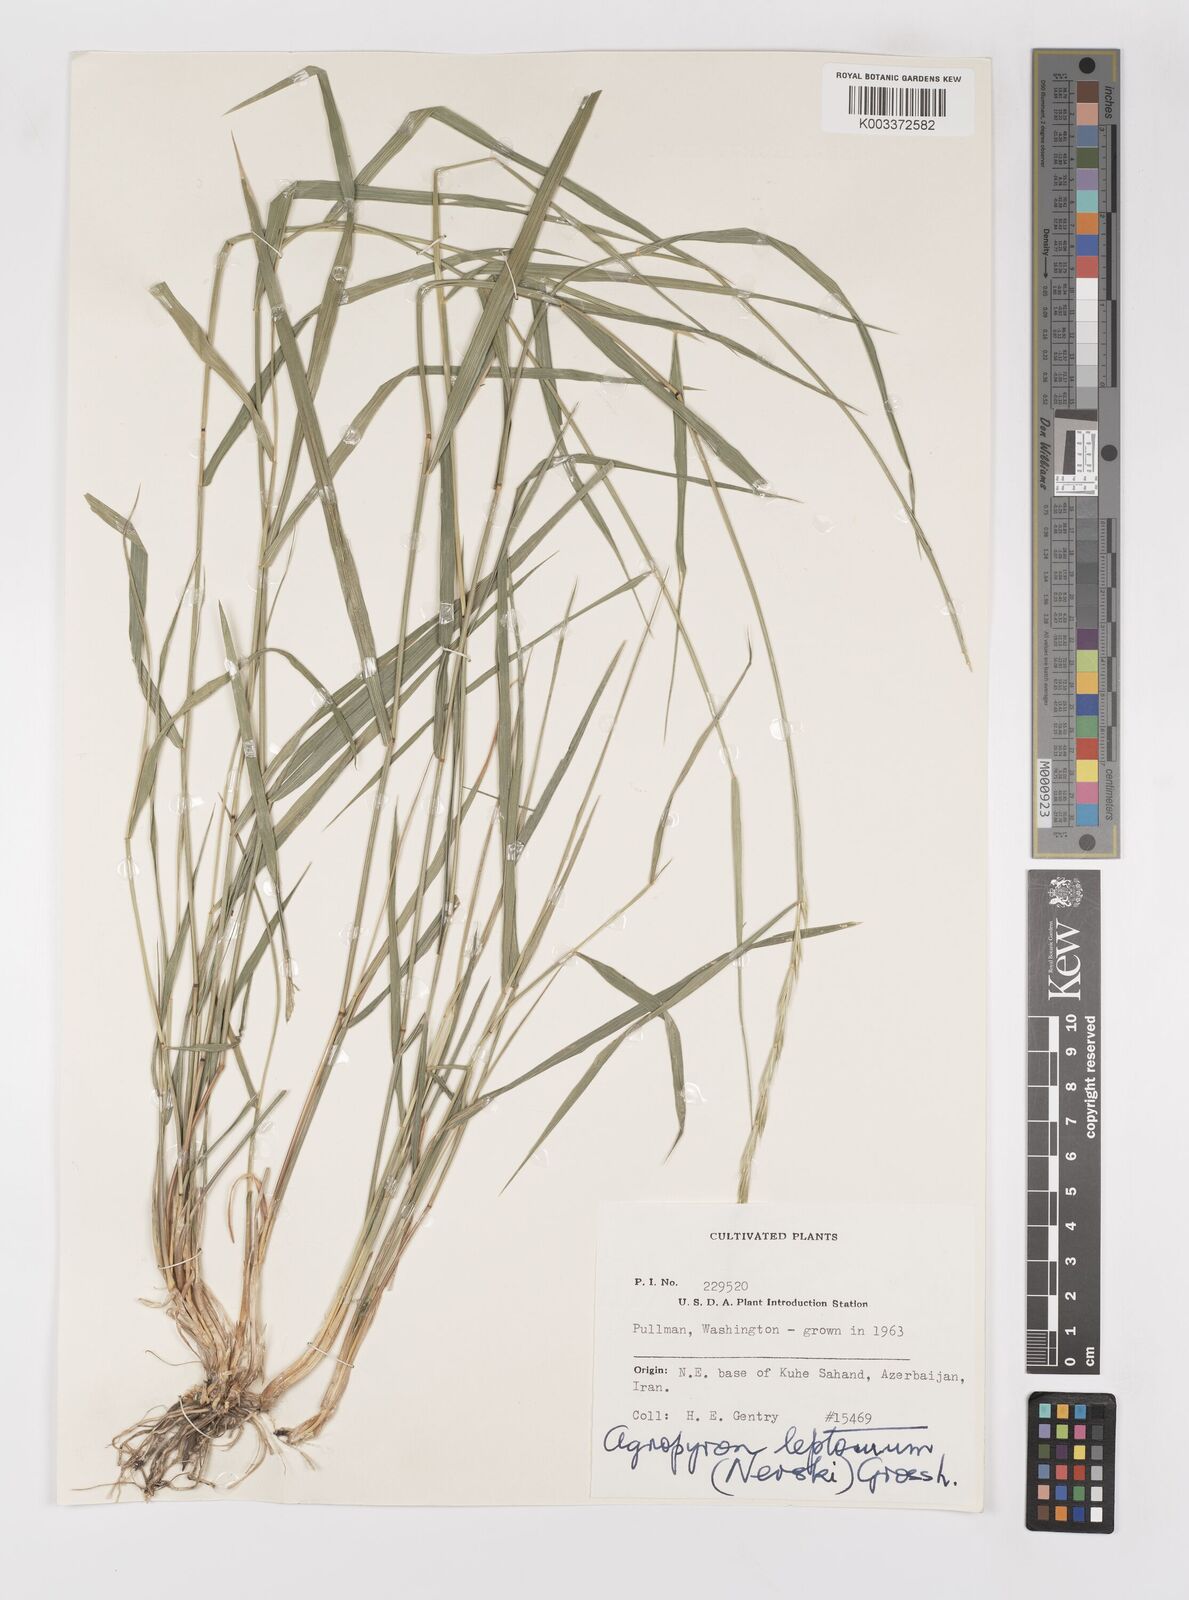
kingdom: Plantae
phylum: Tracheophyta
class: Liliopsida
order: Poales
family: Poaceae
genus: Elymus
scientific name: Elymus transhyrcanus
